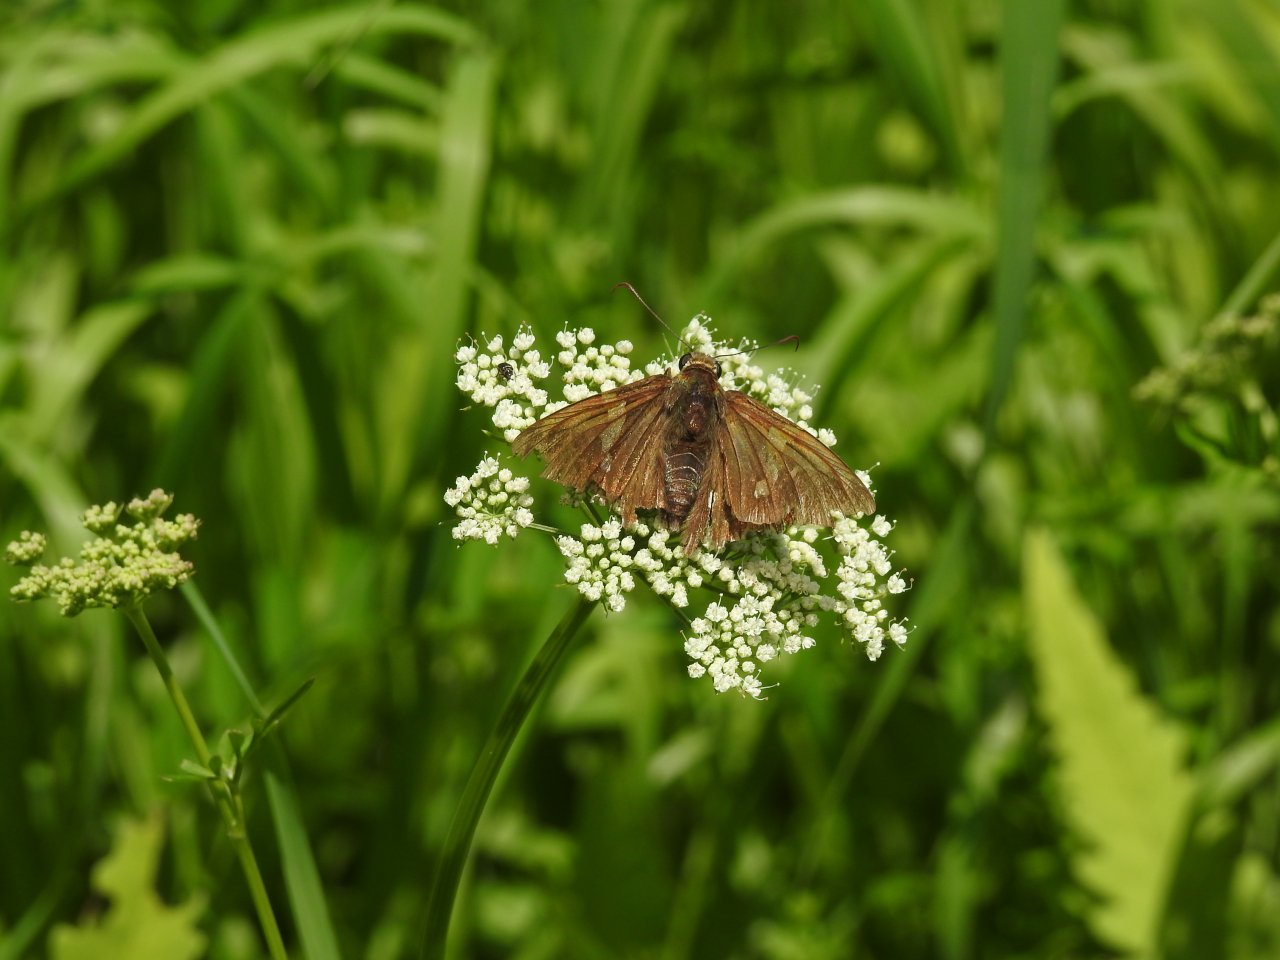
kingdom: Animalia
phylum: Arthropoda
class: Insecta
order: Lepidoptera
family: Hesperiidae
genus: Epargyreus
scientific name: Epargyreus clarus
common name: Silver-spotted Skipper
